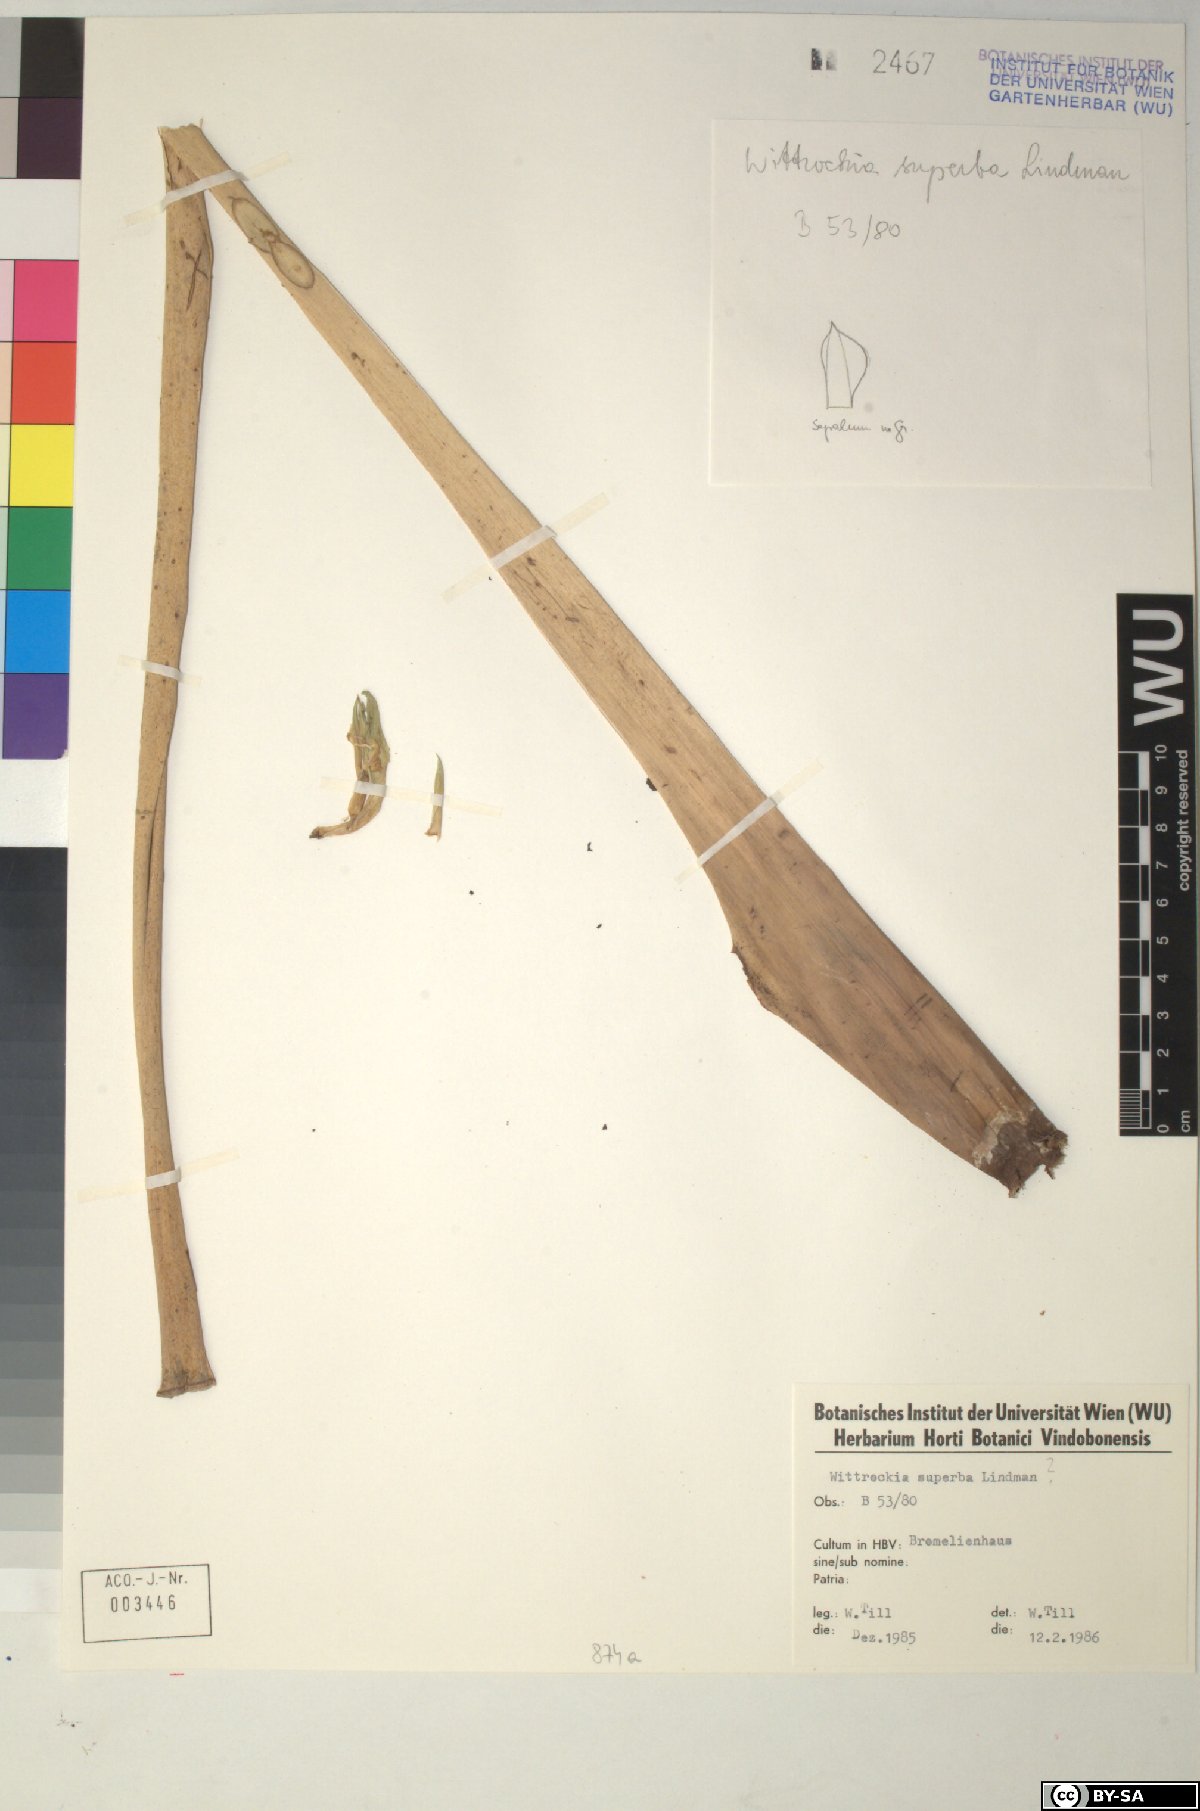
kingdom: Plantae
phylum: Tracheophyta
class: Liliopsida
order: Poales
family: Bromeliaceae
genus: Wittrockia
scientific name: Wittrockia superba
